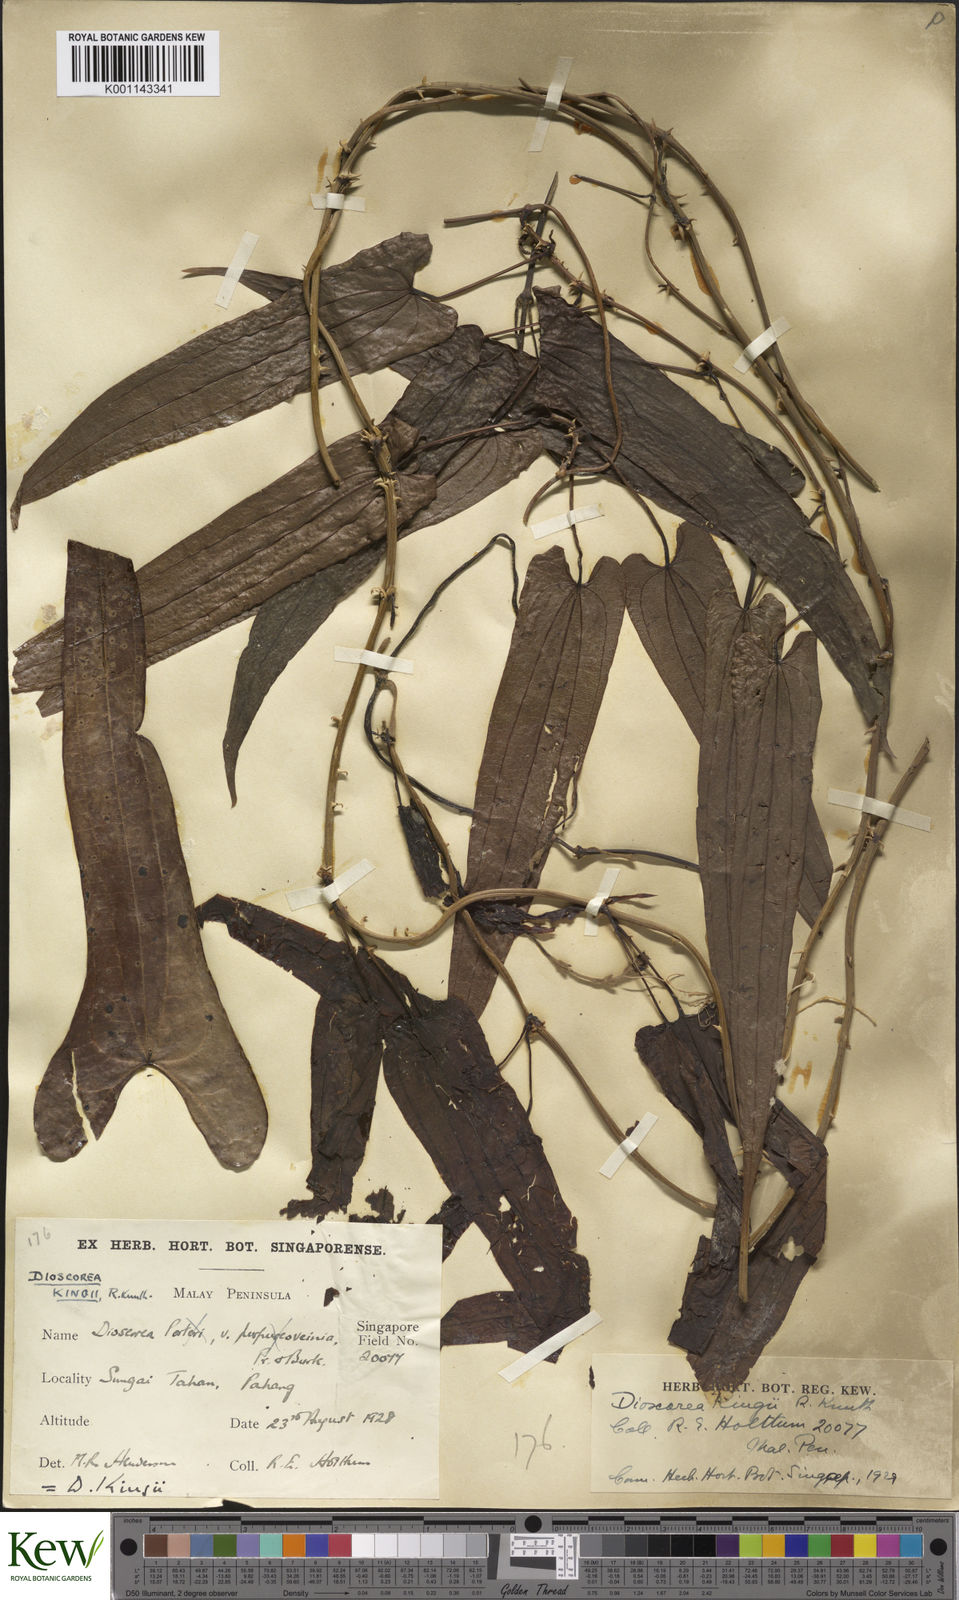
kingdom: Plantae
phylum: Tracheophyta
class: Liliopsida
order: Dioscoreales
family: Dioscoreaceae
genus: Dioscorea
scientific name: Dioscorea kingii
